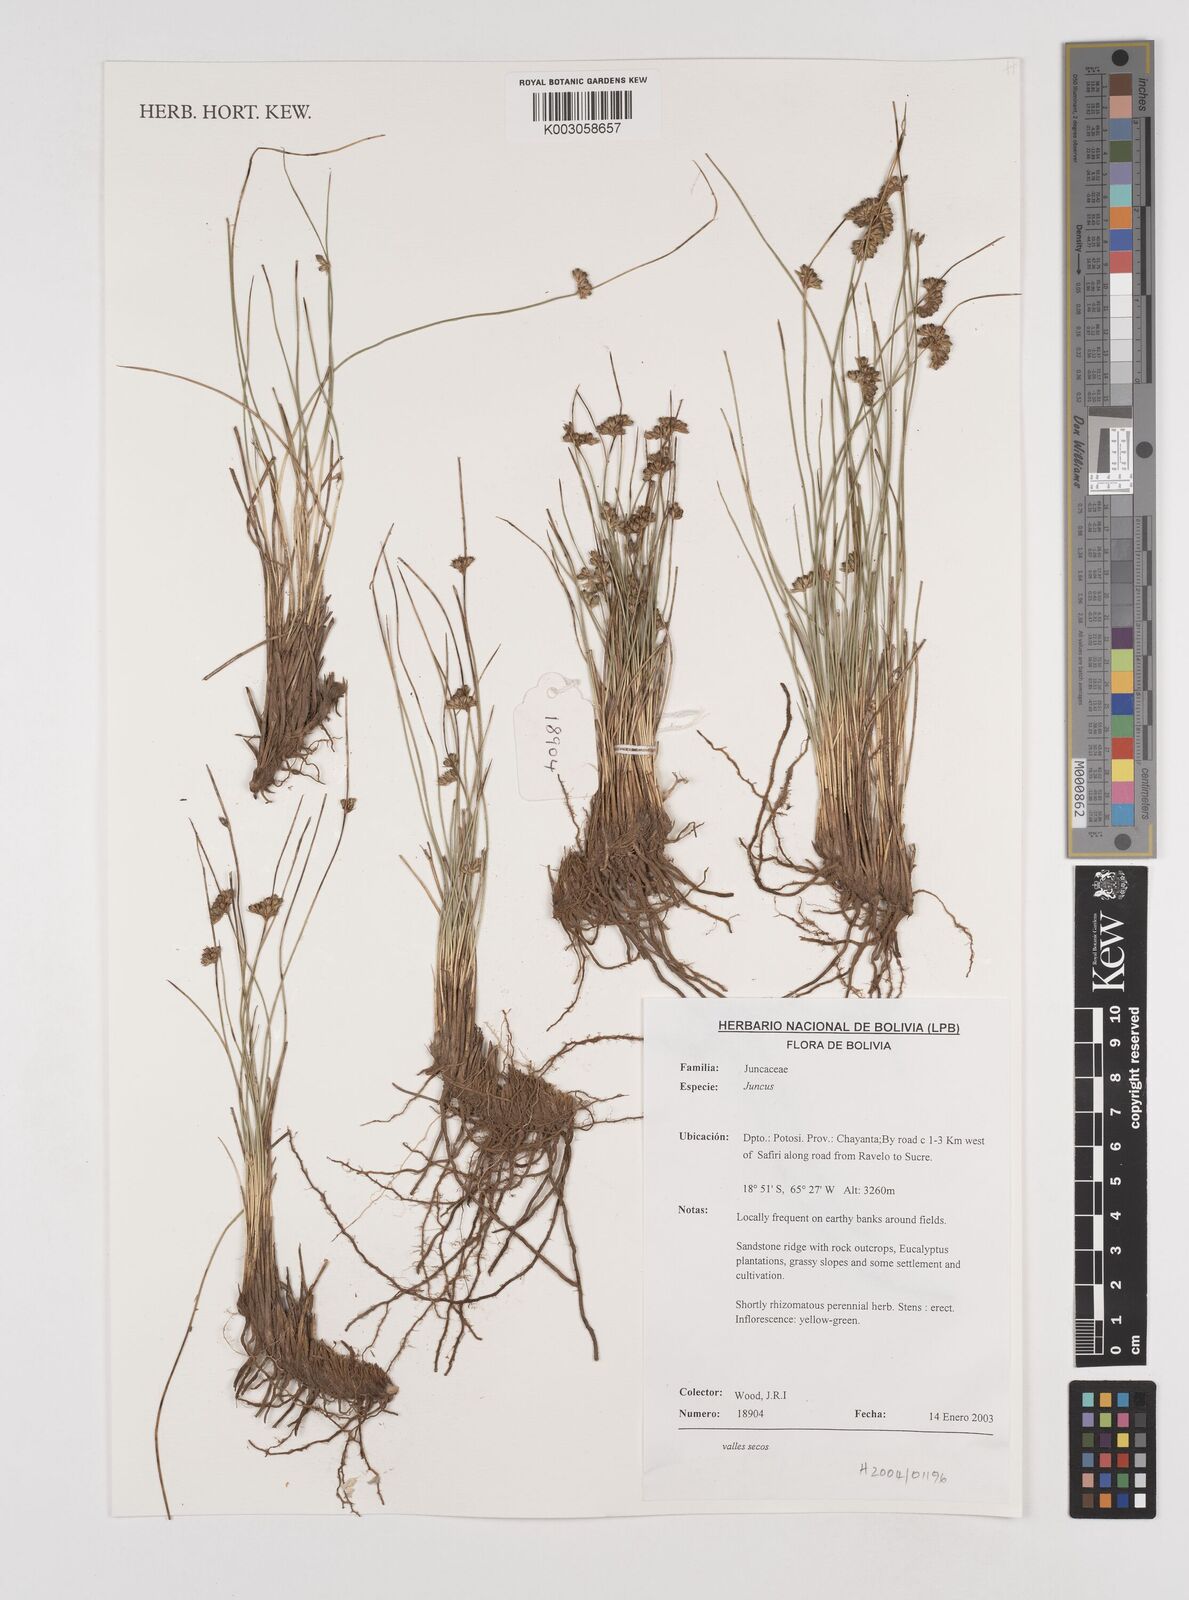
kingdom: Plantae
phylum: Tracheophyta
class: Liliopsida
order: Poales
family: Juncaceae
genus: Juncus
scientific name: Juncus
